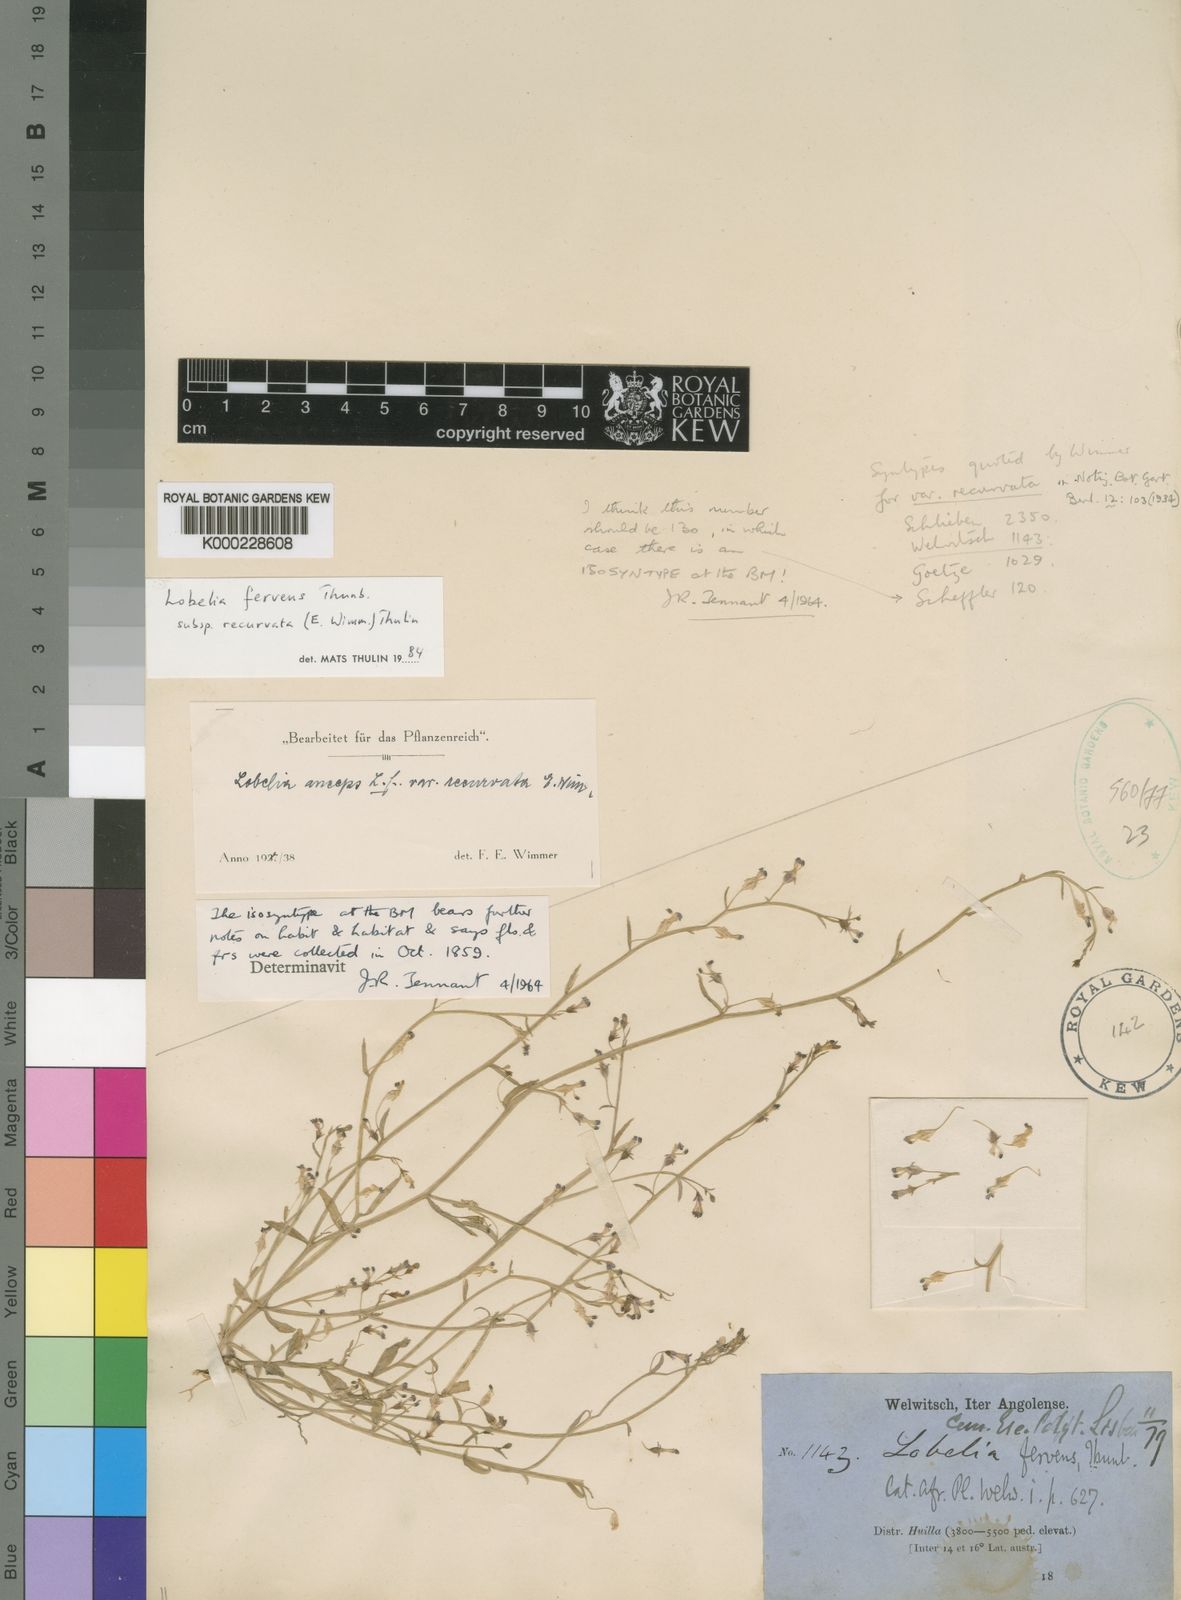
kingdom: Plantae
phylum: Tracheophyta
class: Magnoliopsida
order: Asterales
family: Campanulaceae
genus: Lobelia
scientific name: Lobelia fervens
